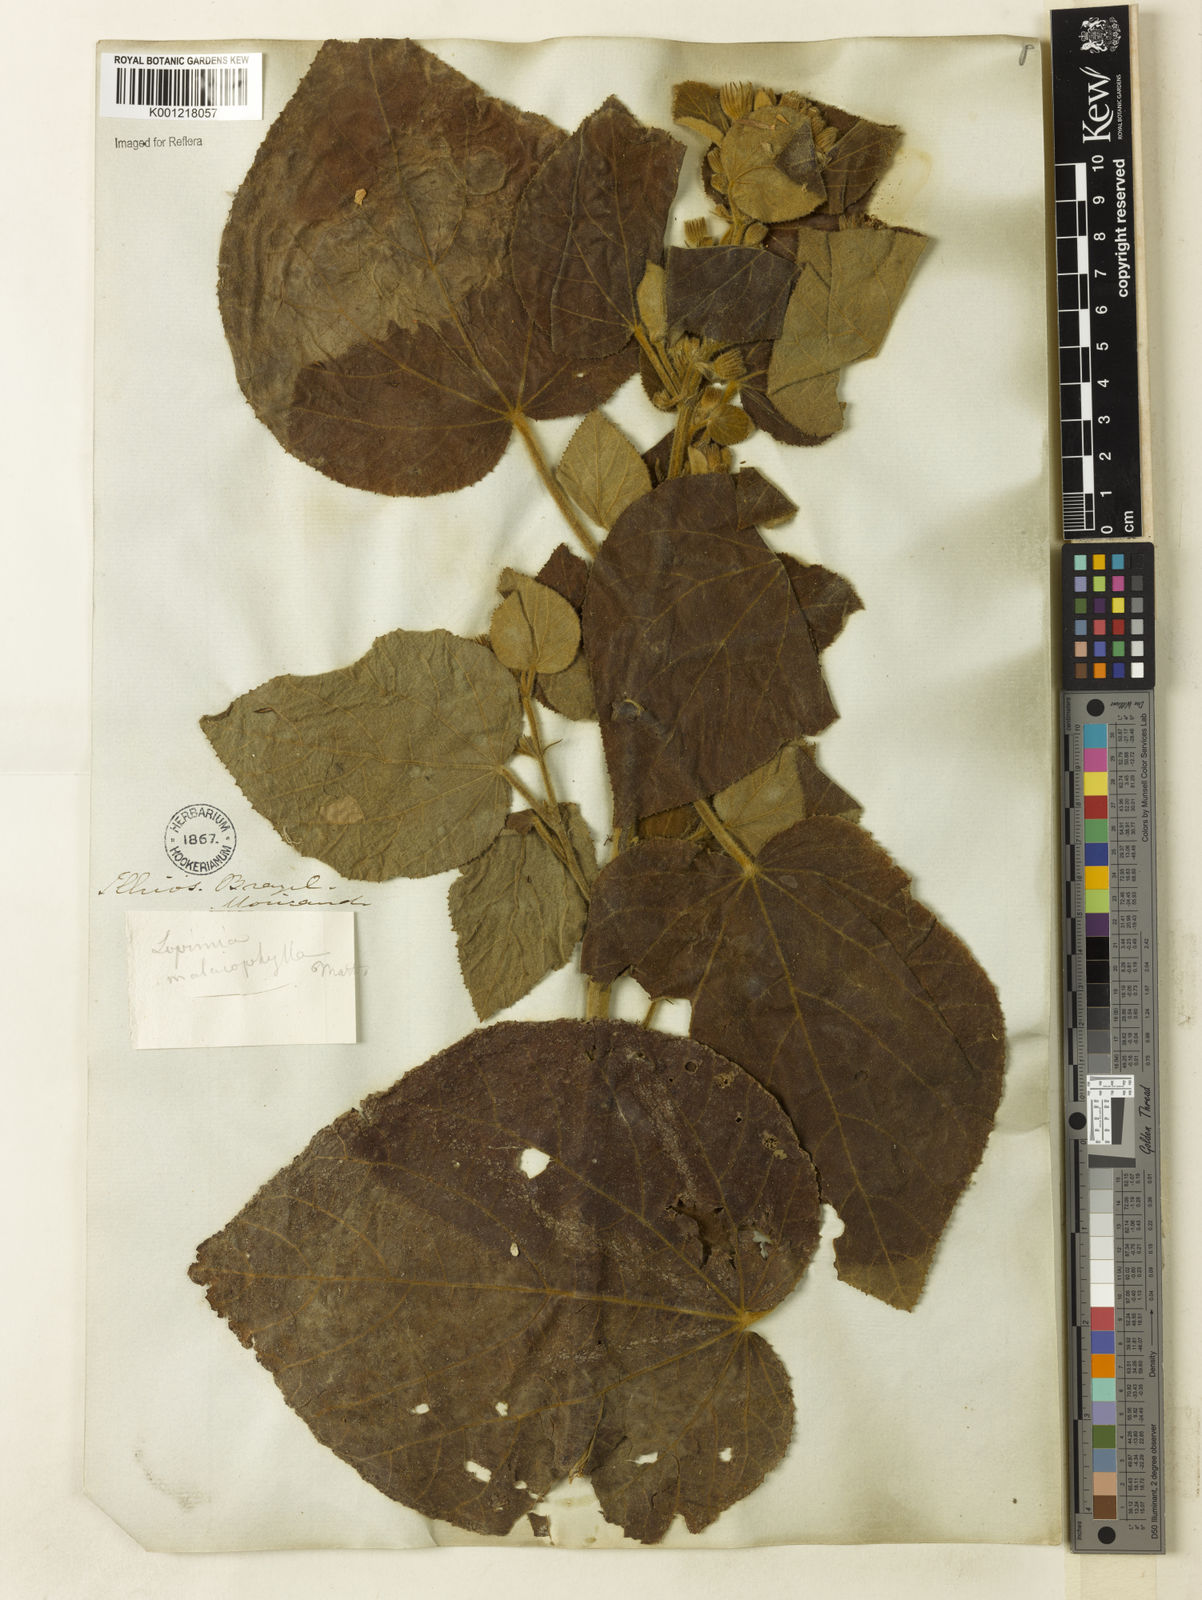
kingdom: Plantae
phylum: Tracheophyta
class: Magnoliopsida
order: Malvales
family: Malvaceae
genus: Pavonia
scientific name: Pavonia malacophylla
